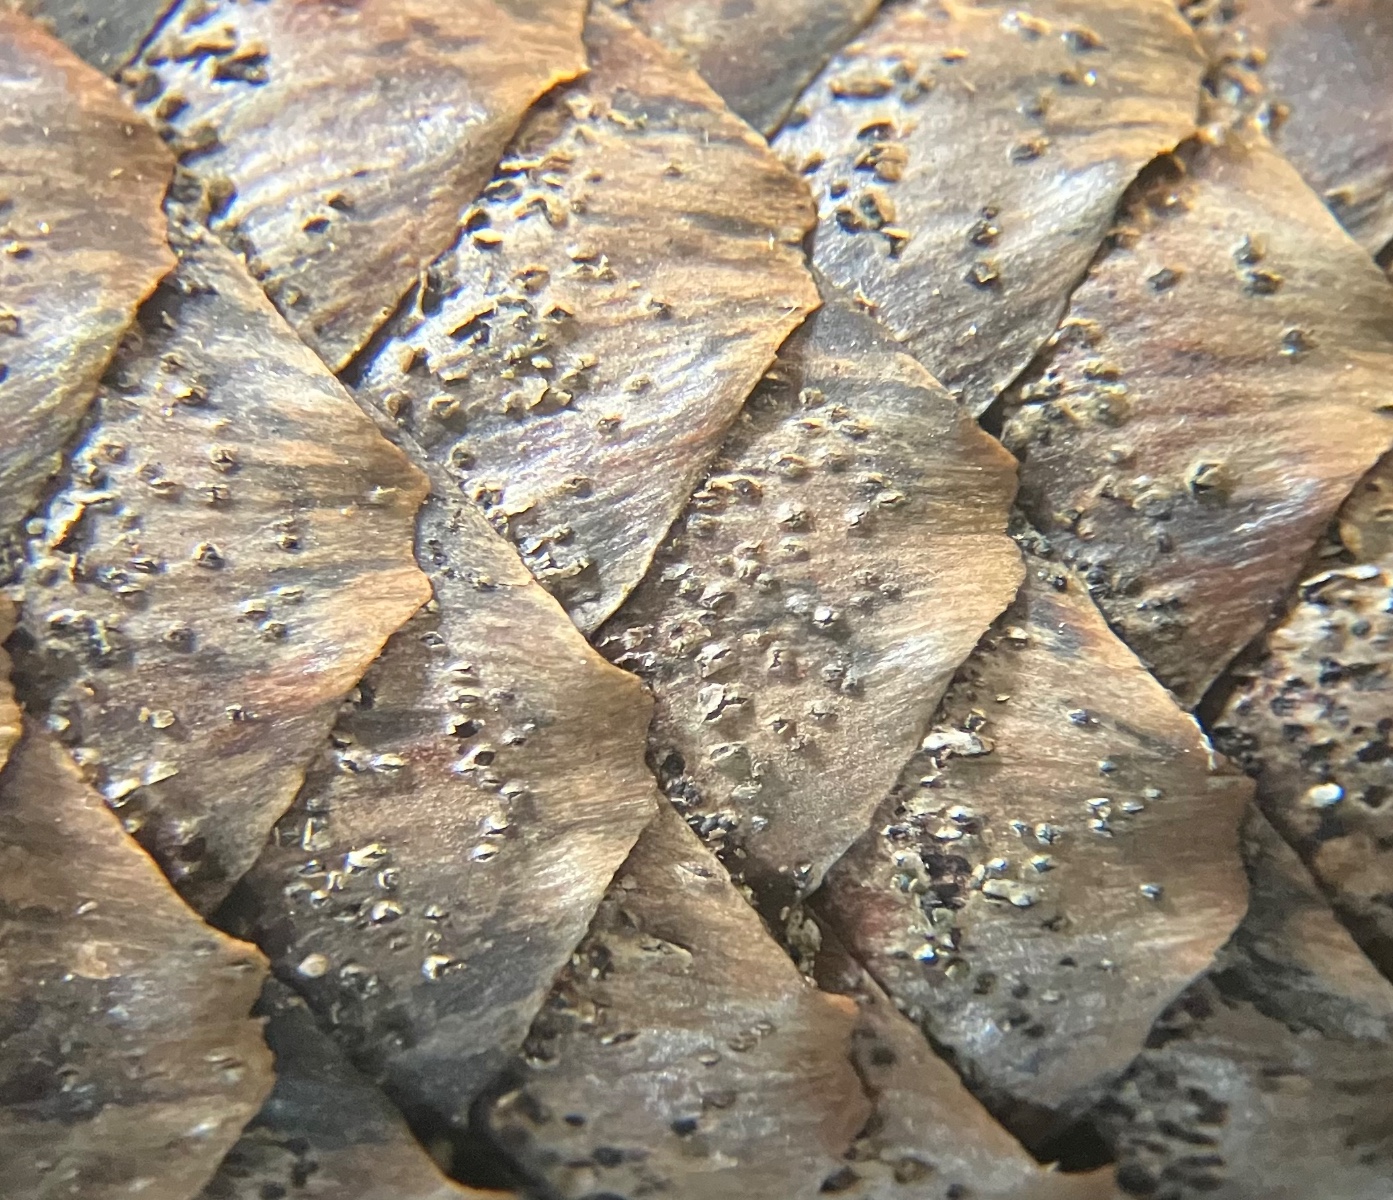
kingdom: Fungi
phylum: Ascomycota
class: Dothideomycetes
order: Botryosphaeriales
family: Botryosphaeriaceae
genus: Sphaeropsis
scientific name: Sphaeropsis sapinea
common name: Sphaeropsis blight
